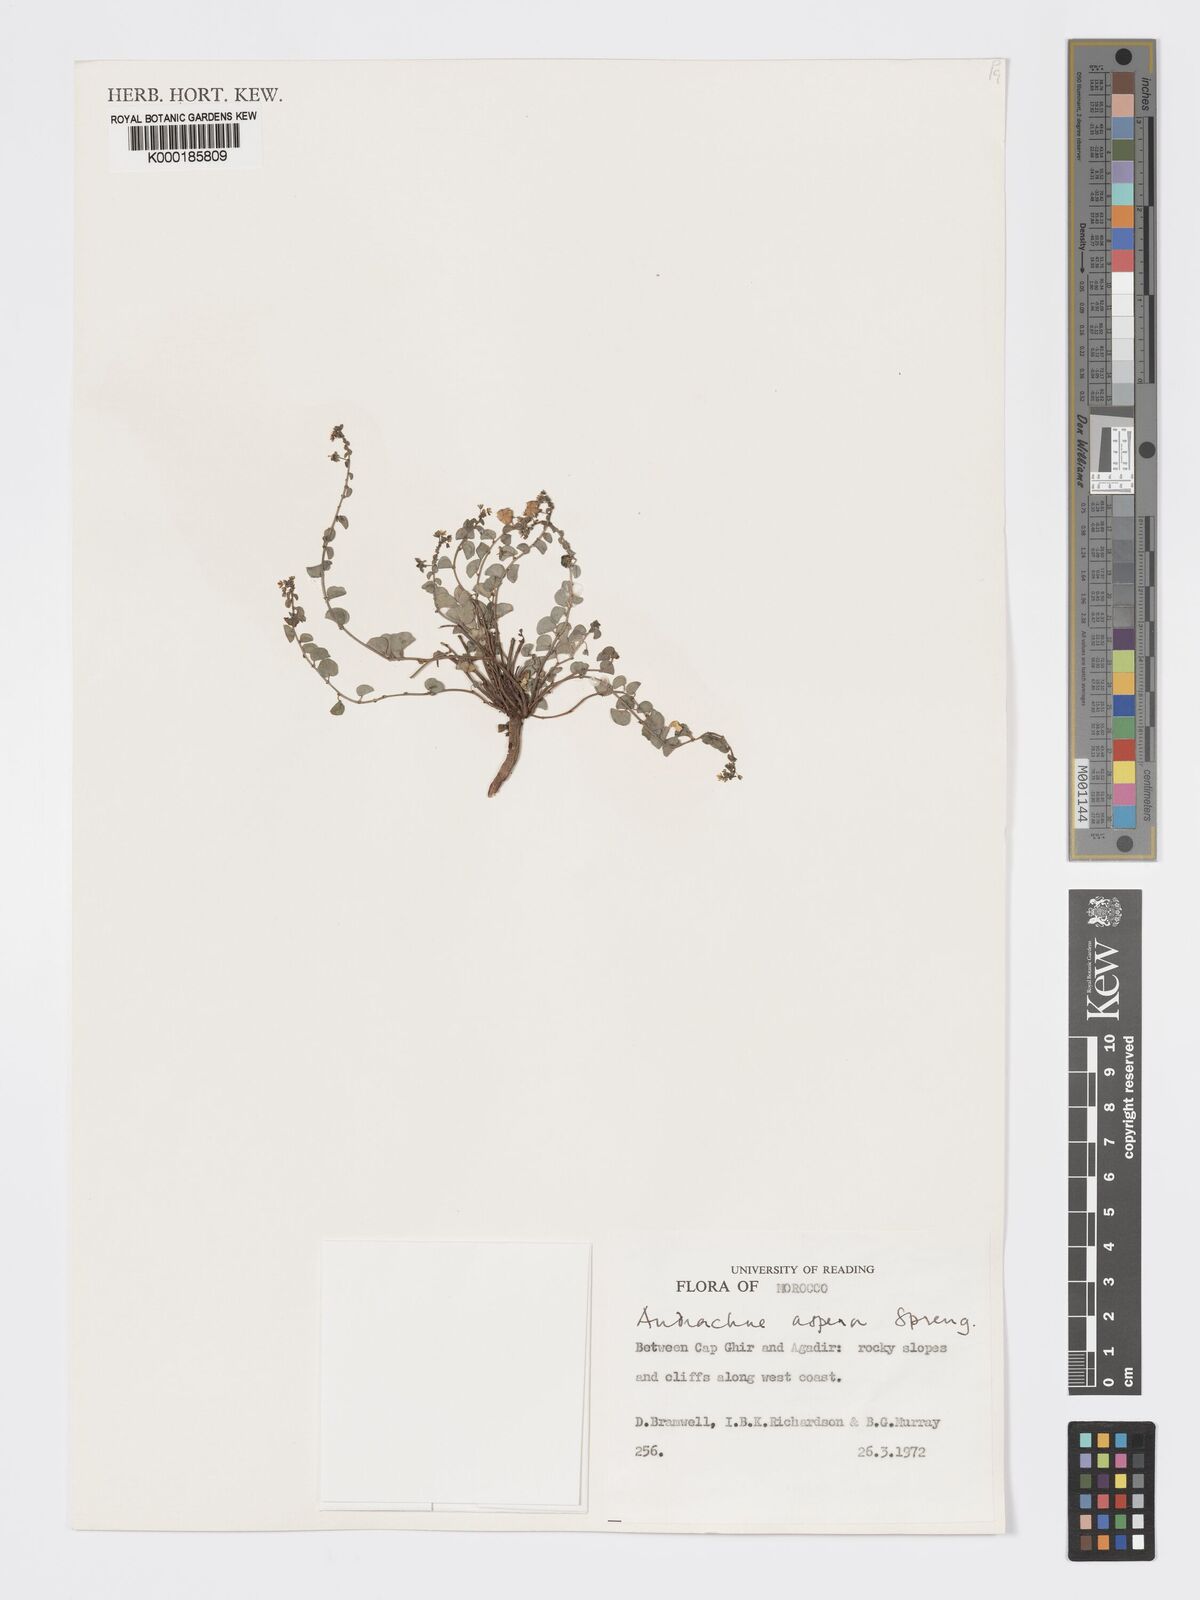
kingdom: Plantae
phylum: Tracheophyta
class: Magnoliopsida
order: Malpighiales
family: Phyllanthaceae
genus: Andrachne
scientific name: Andrachne aspera
